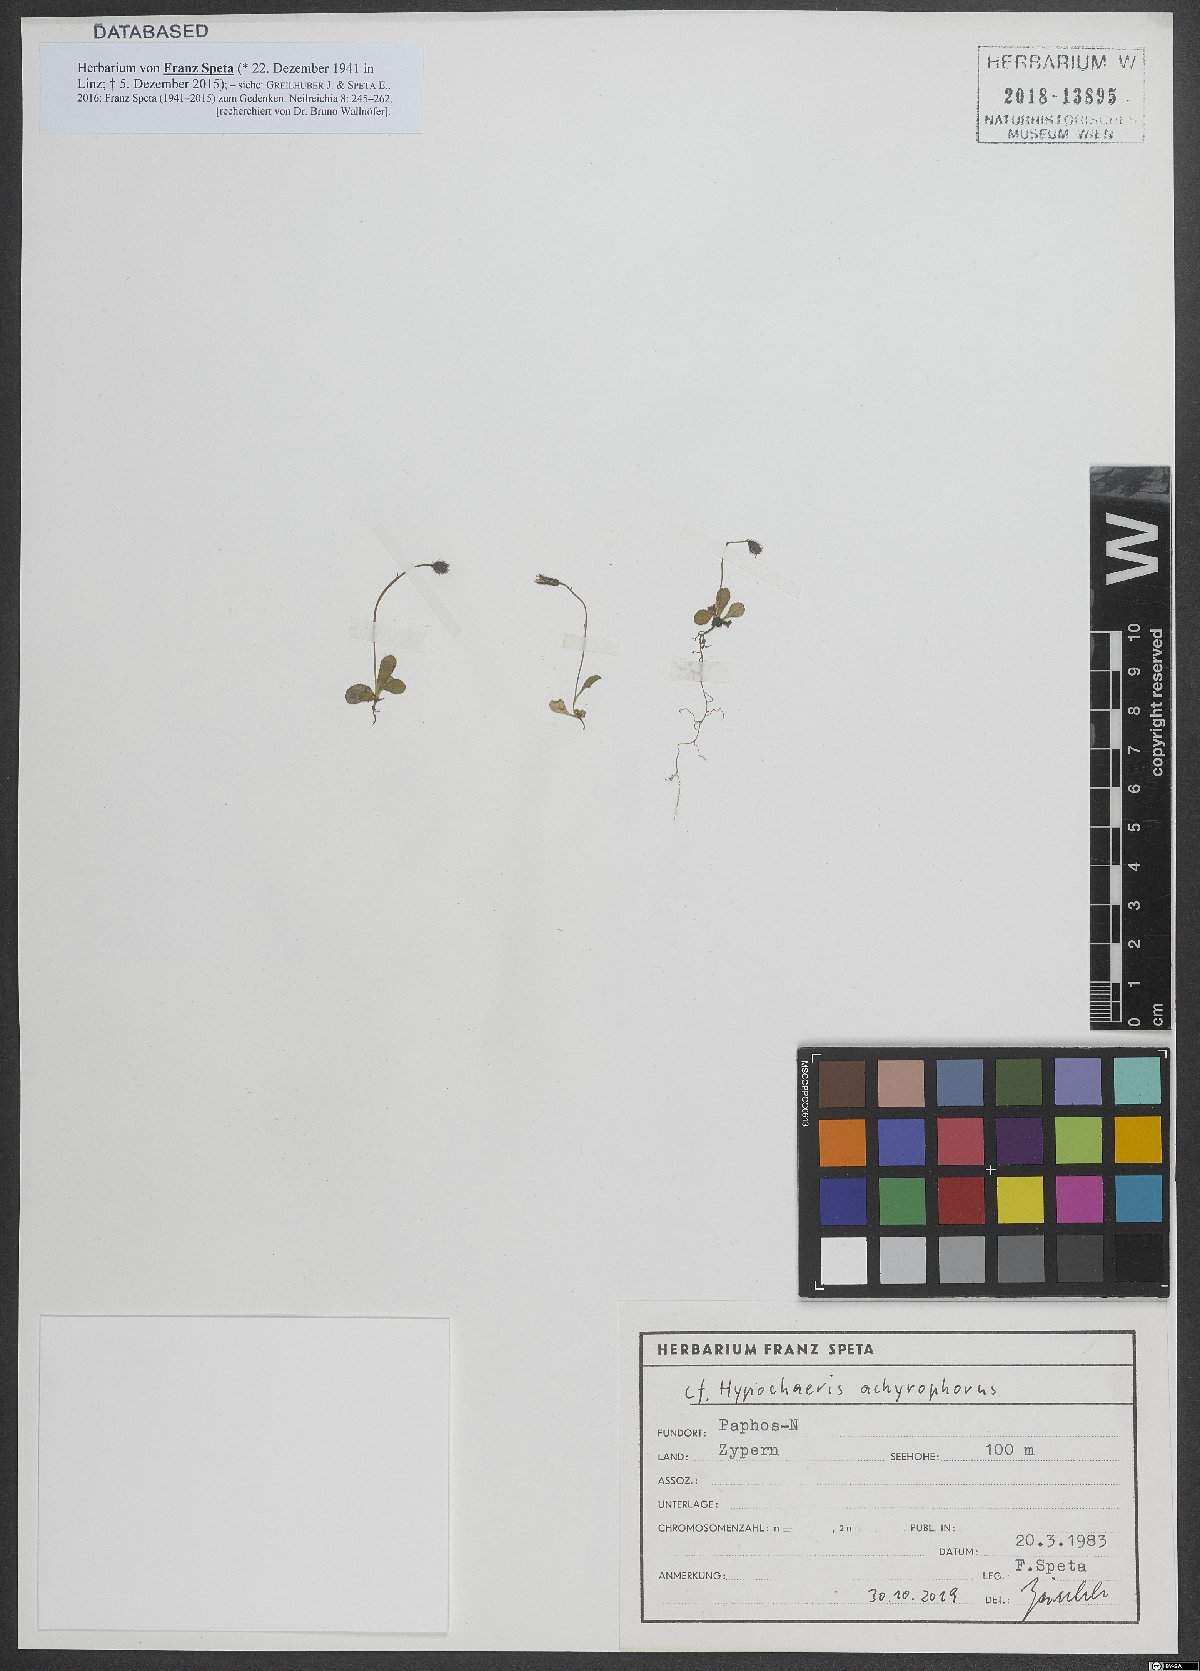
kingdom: Plantae
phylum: Tracheophyta
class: Magnoliopsida
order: Asterales
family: Asteraceae
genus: Achyrophorus
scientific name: Achyrophorus valdesii
